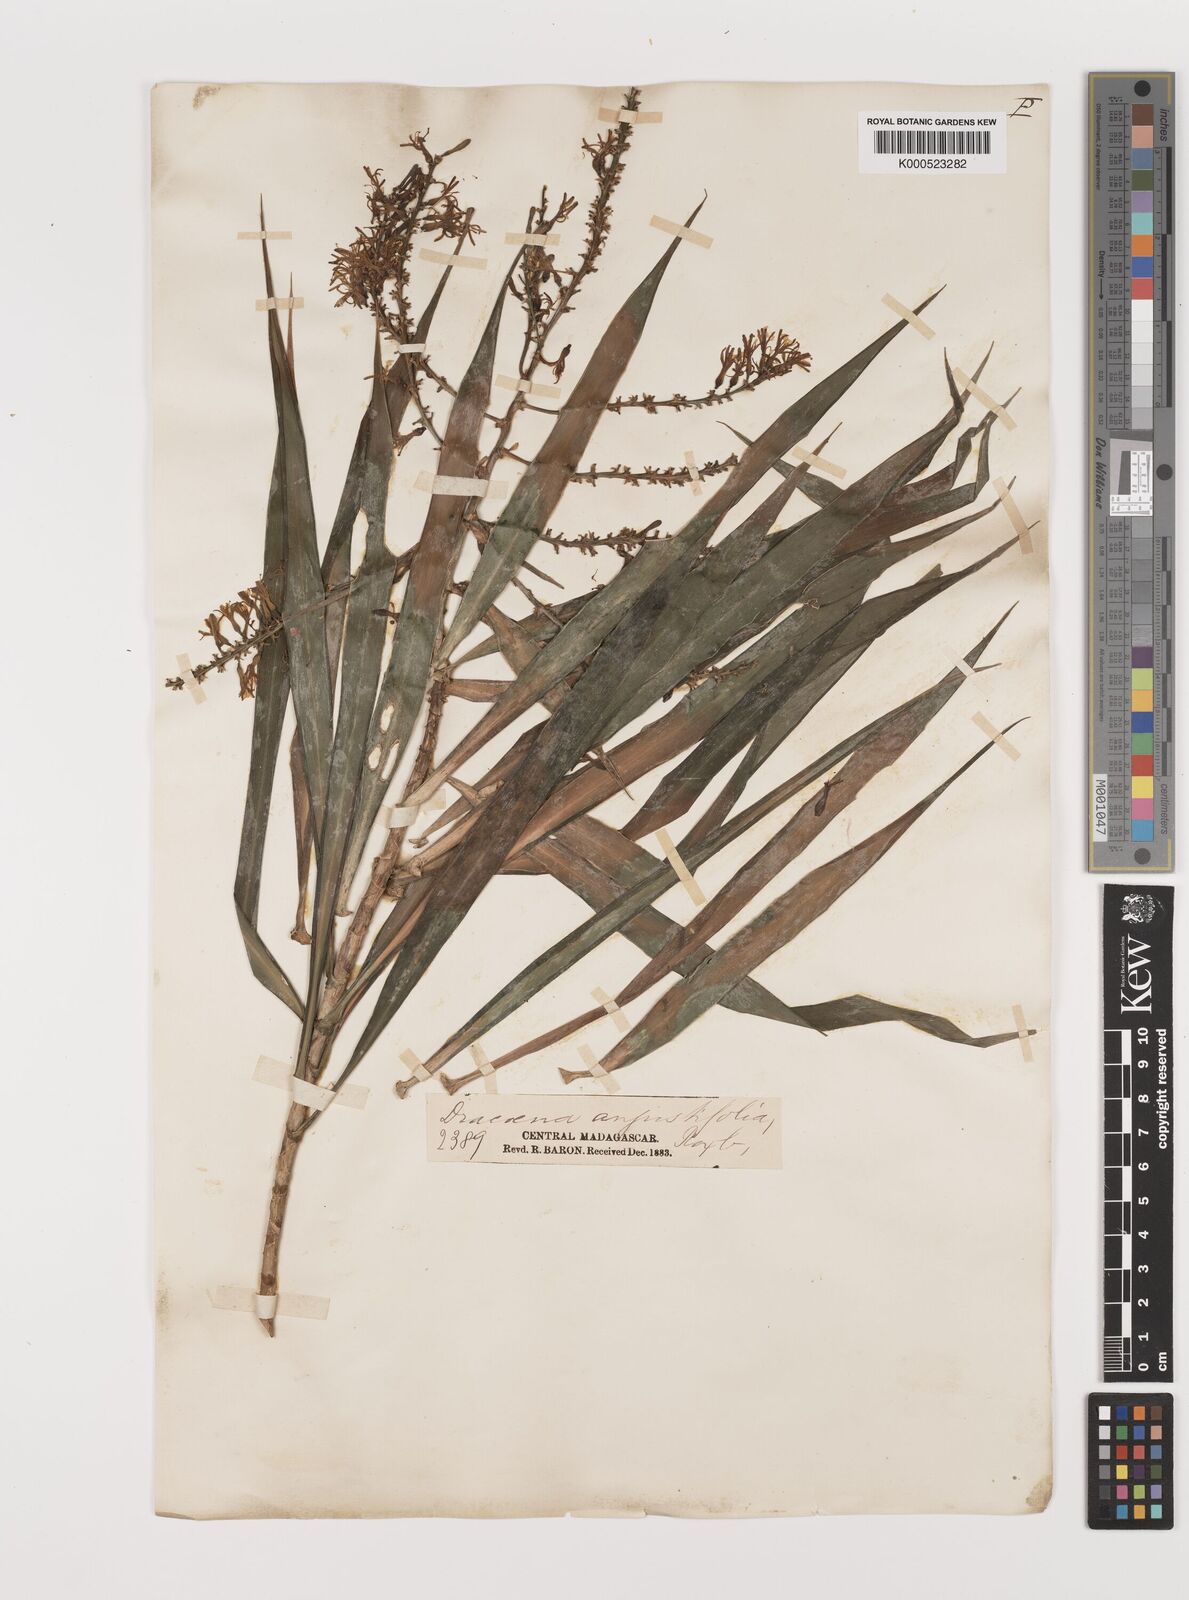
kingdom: Plantae
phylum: Tracheophyta
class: Liliopsida
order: Asparagales
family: Asparagaceae
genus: Dracaena
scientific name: Dracaena angustifolia
